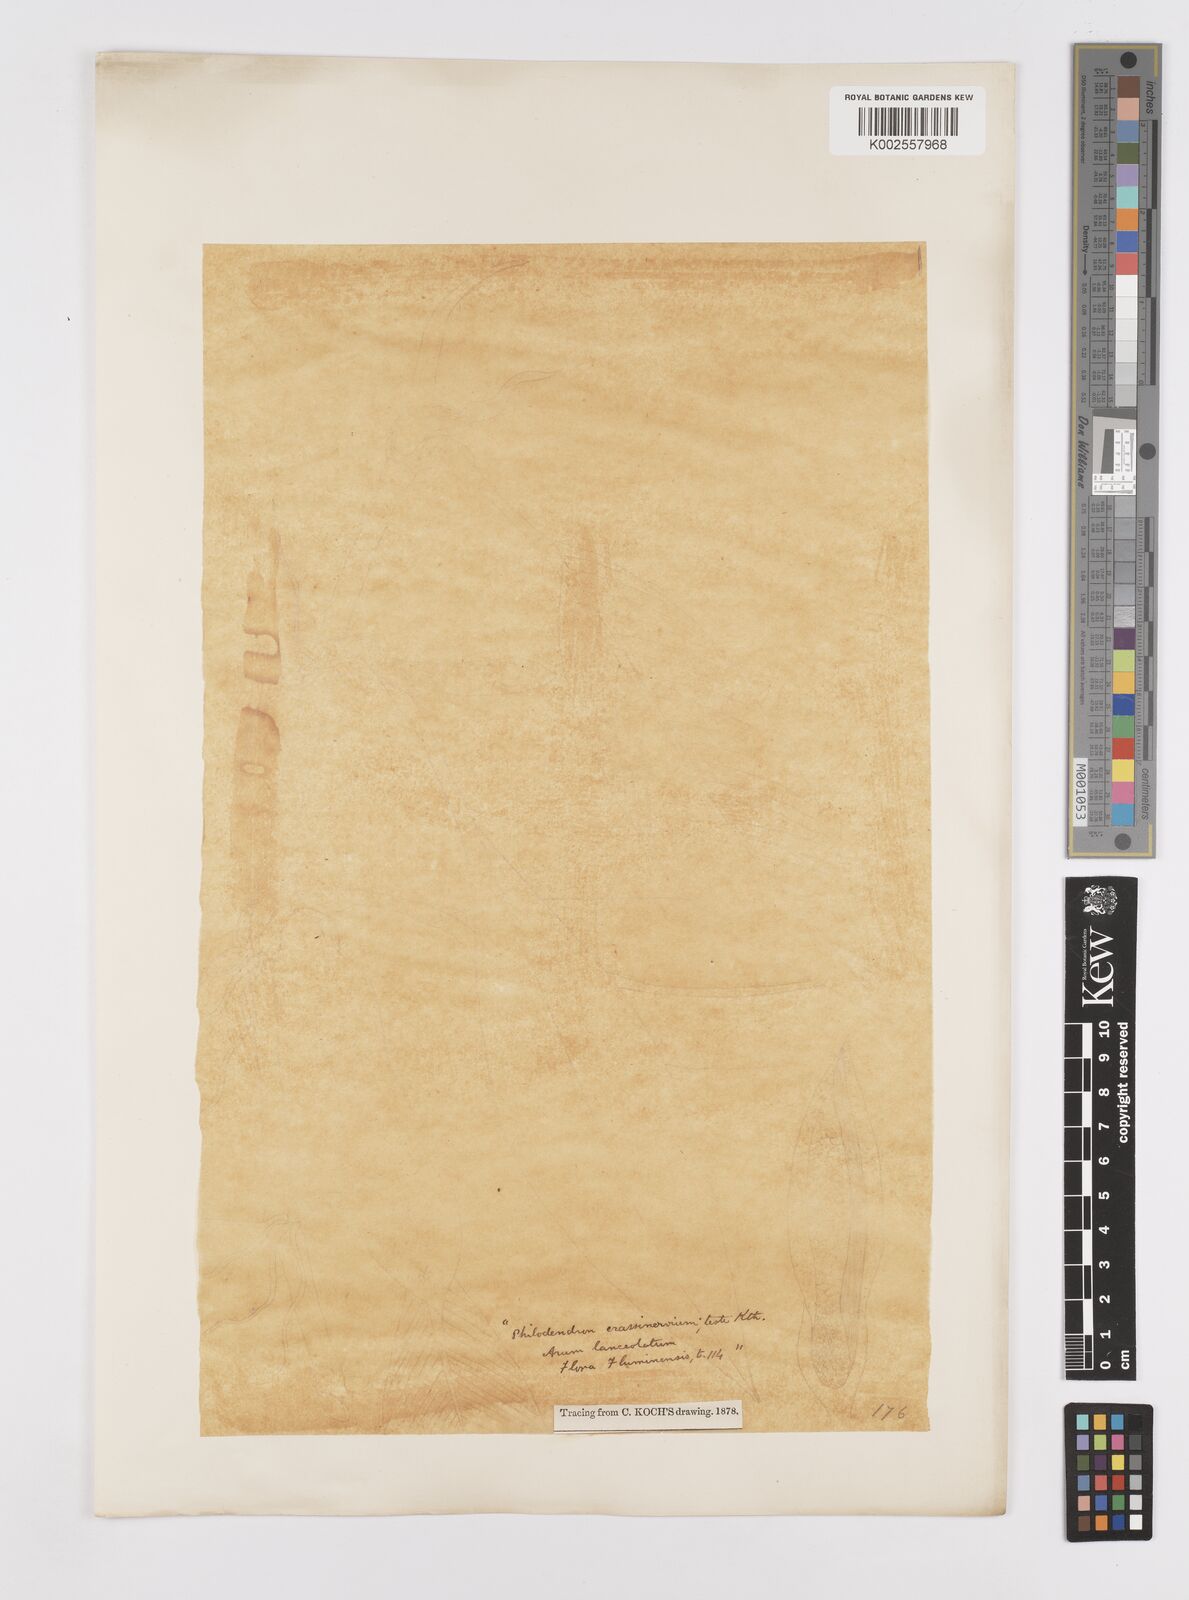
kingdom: Plantae
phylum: Tracheophyta
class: Liliopsida
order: Alismatales
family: Araceae
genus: Philodendron
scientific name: Philodendron crassinervium
